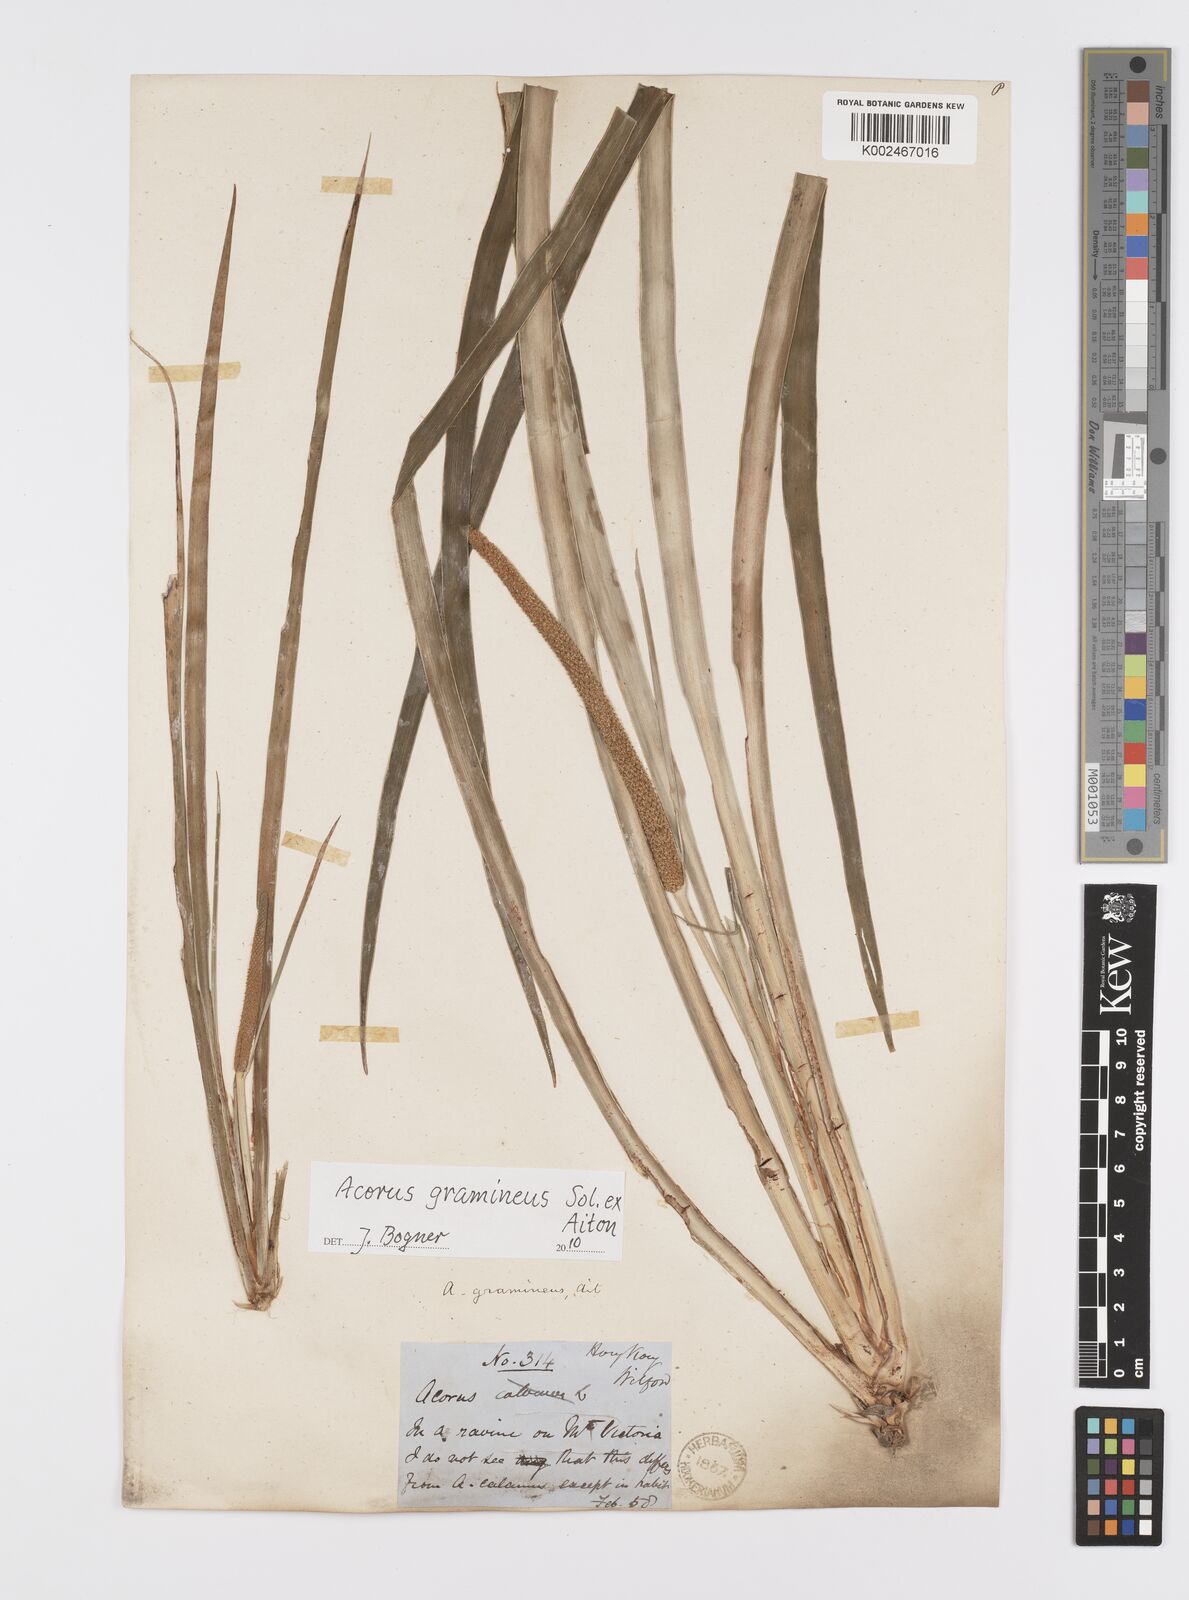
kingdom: Plantae
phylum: Tracheophyta
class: Liliopsida
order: Acorales
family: Acoraceae
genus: Acorus
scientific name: Acorus gramineus
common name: Slender sweet-flag
